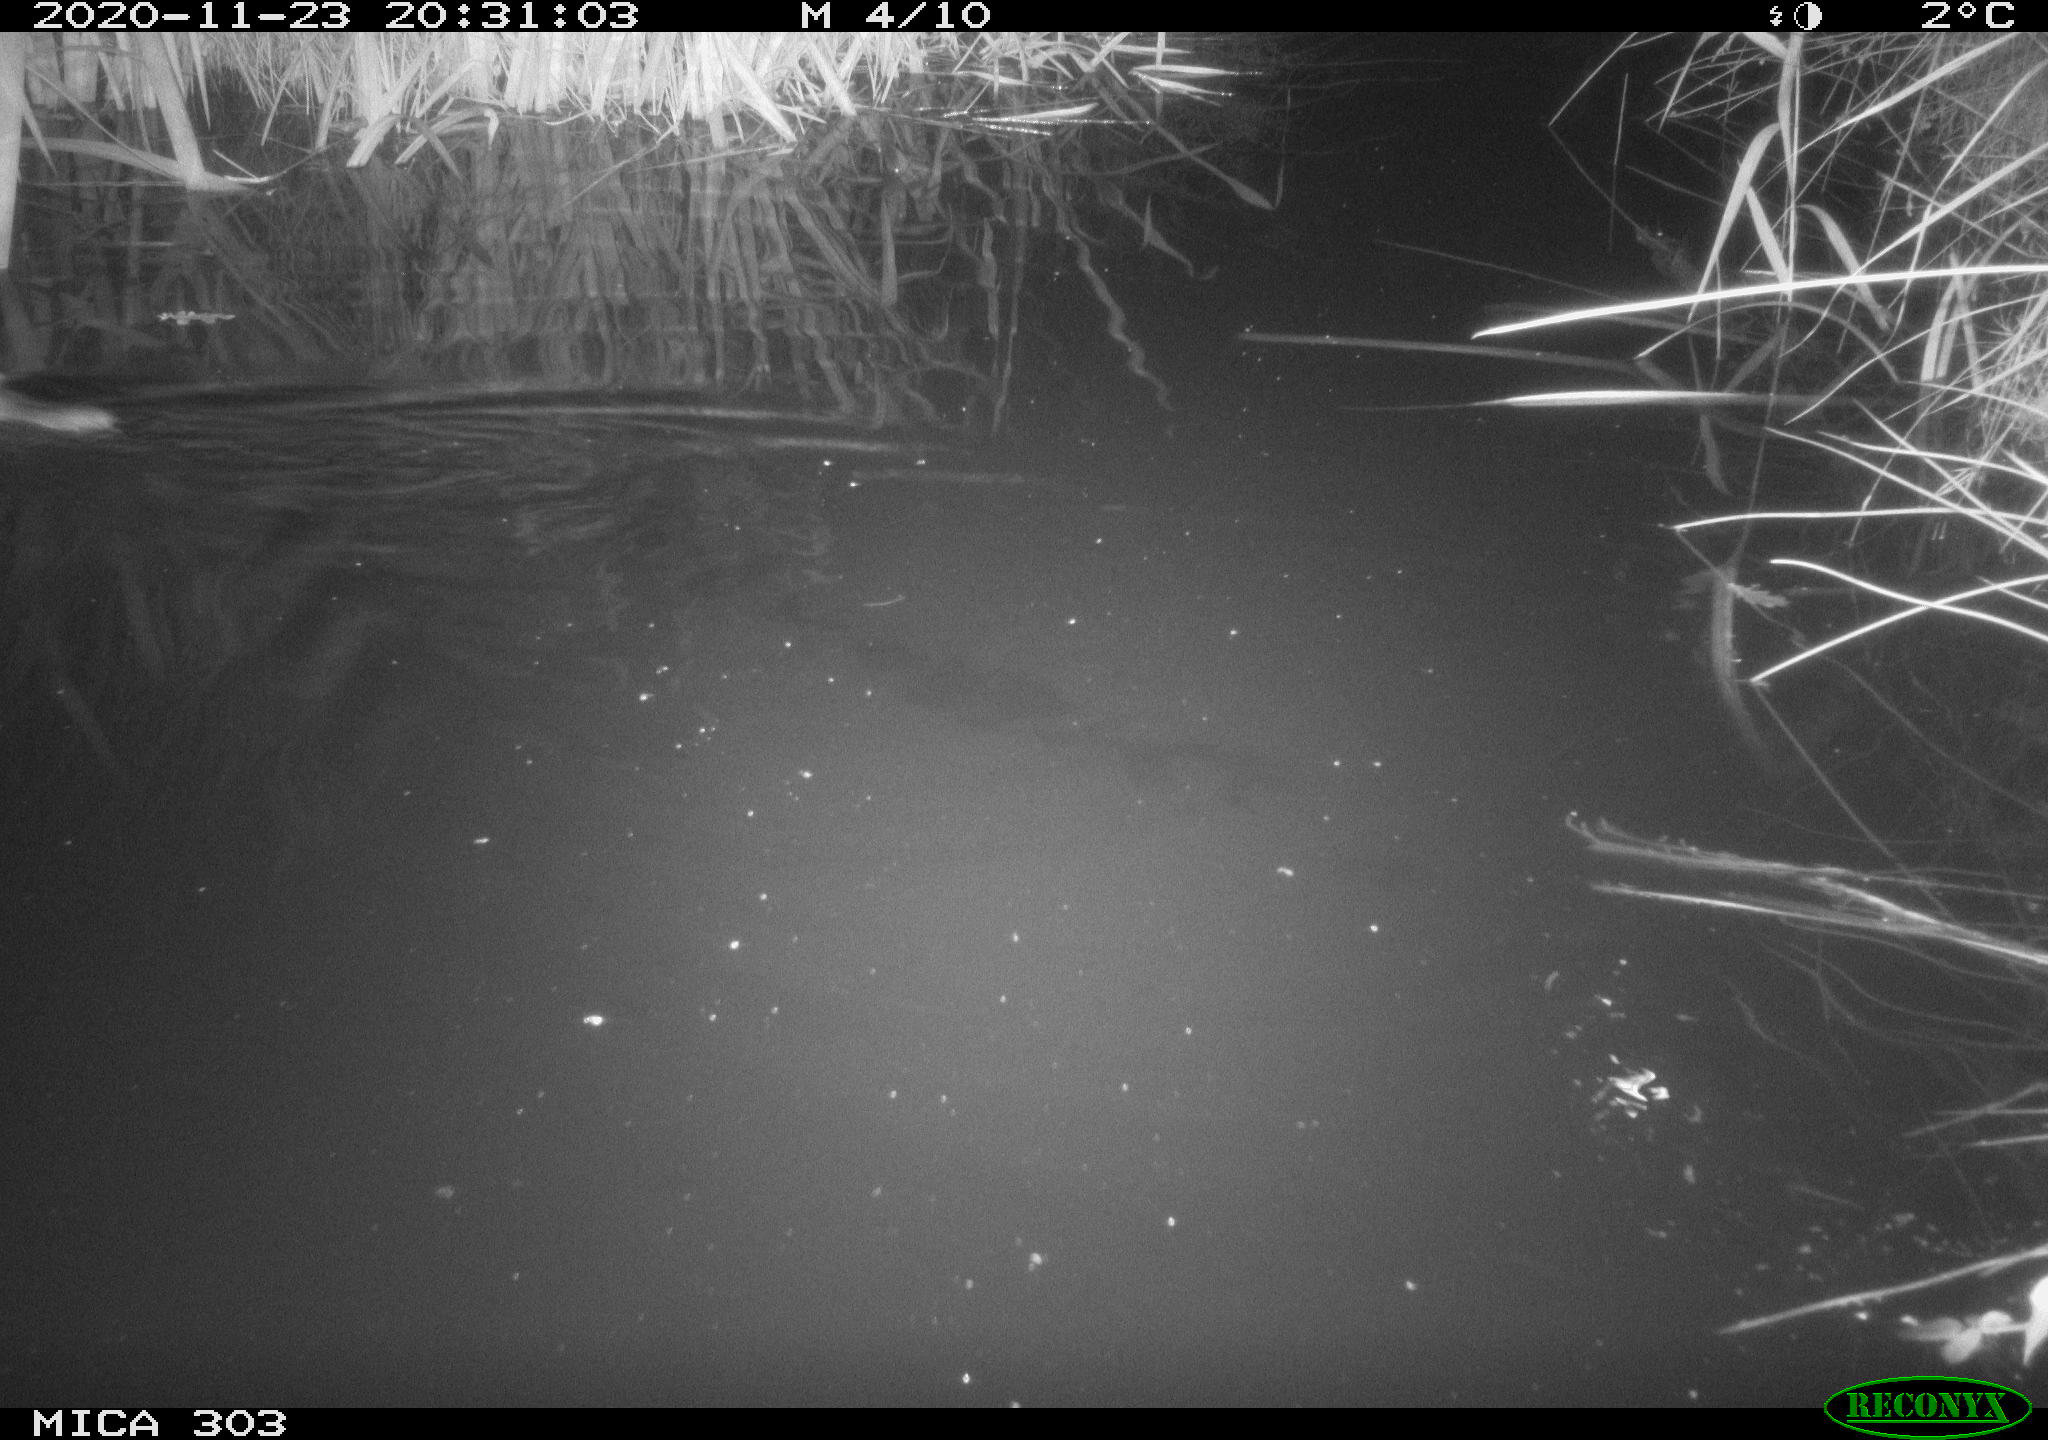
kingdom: Animalia
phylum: Chordata
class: Mammalia
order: Rodentia
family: Muridae
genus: Rattus
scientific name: Rattus norvegicus
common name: Brown rat
